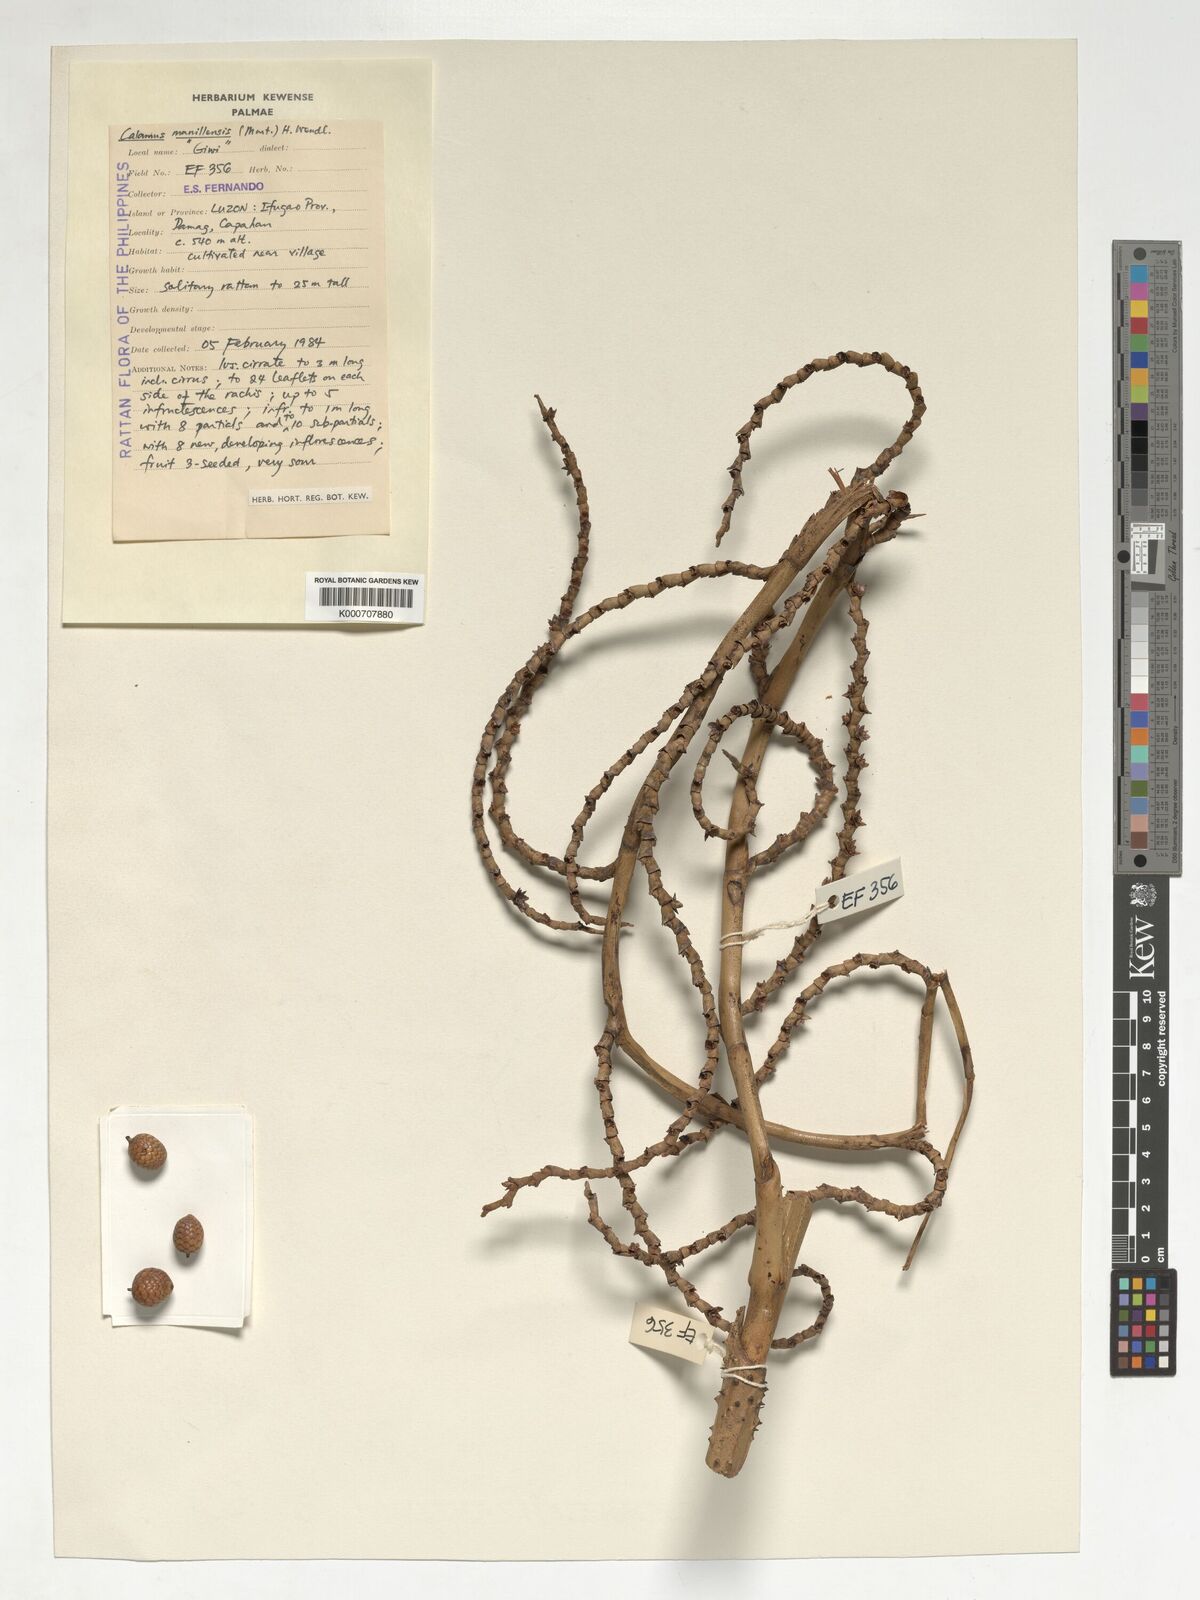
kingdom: Plantae
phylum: Tracheophyta
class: Liliopsida
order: Arecales
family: Arecaceae
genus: Calamus
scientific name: Calamus manillensis
